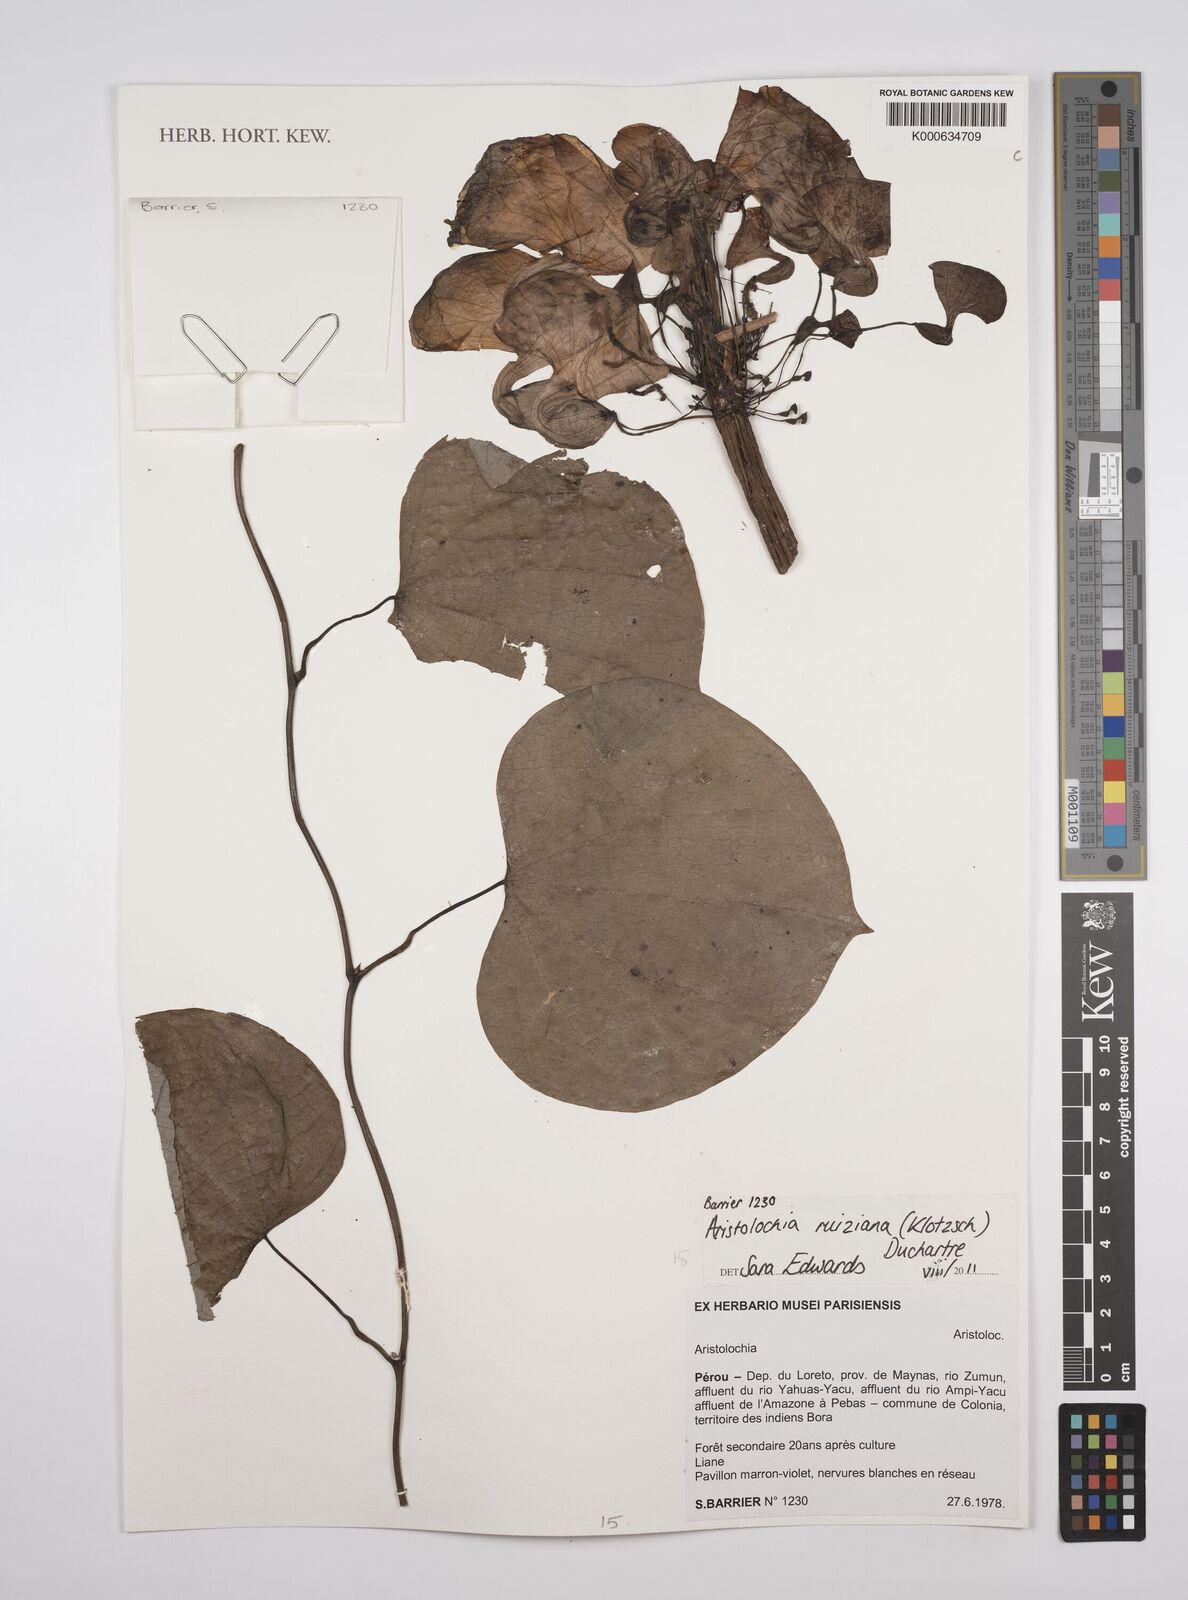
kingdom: Plantae
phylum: Tracheophyta
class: Magnoliopsida
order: Piperales
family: Aristolochiaceae
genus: Aristolochia
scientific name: Aristolochia ruiziana
